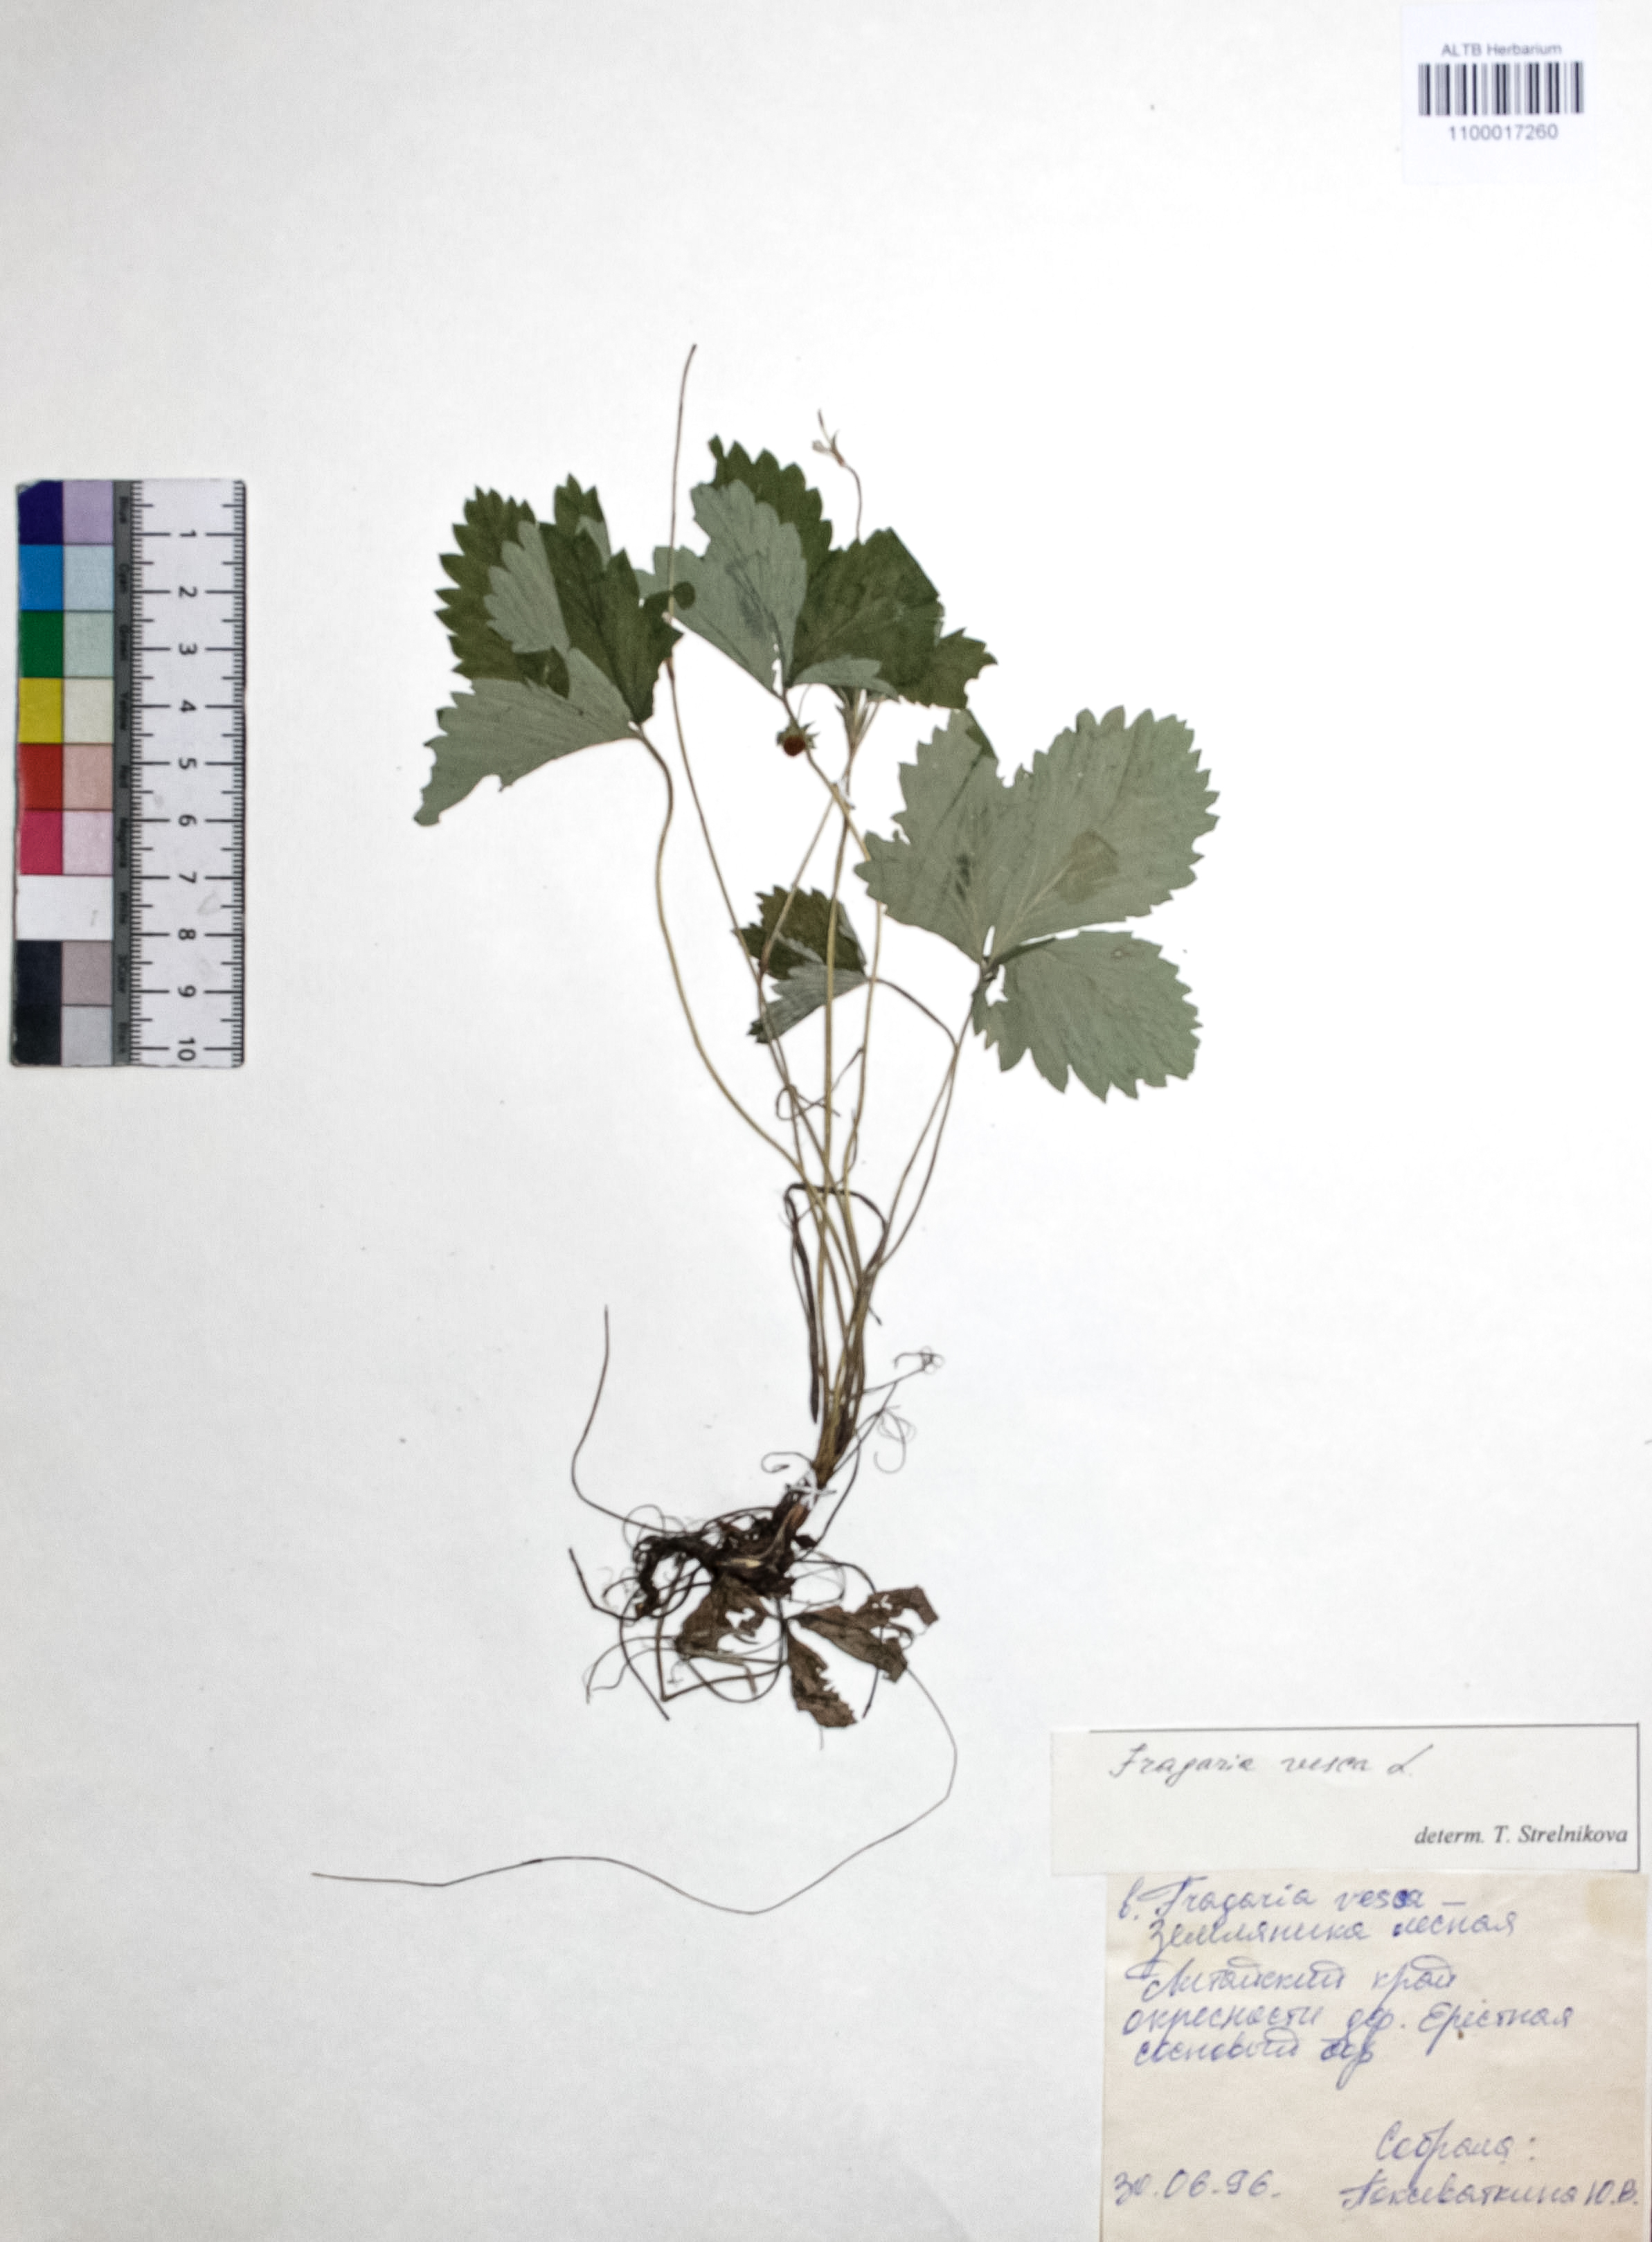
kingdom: Plantae
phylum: Tracheophyta
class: Magnoliopsida
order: Rosales
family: Rosaceae
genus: Fragaria
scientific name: Fragaria vesca
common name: Wild strawberry
